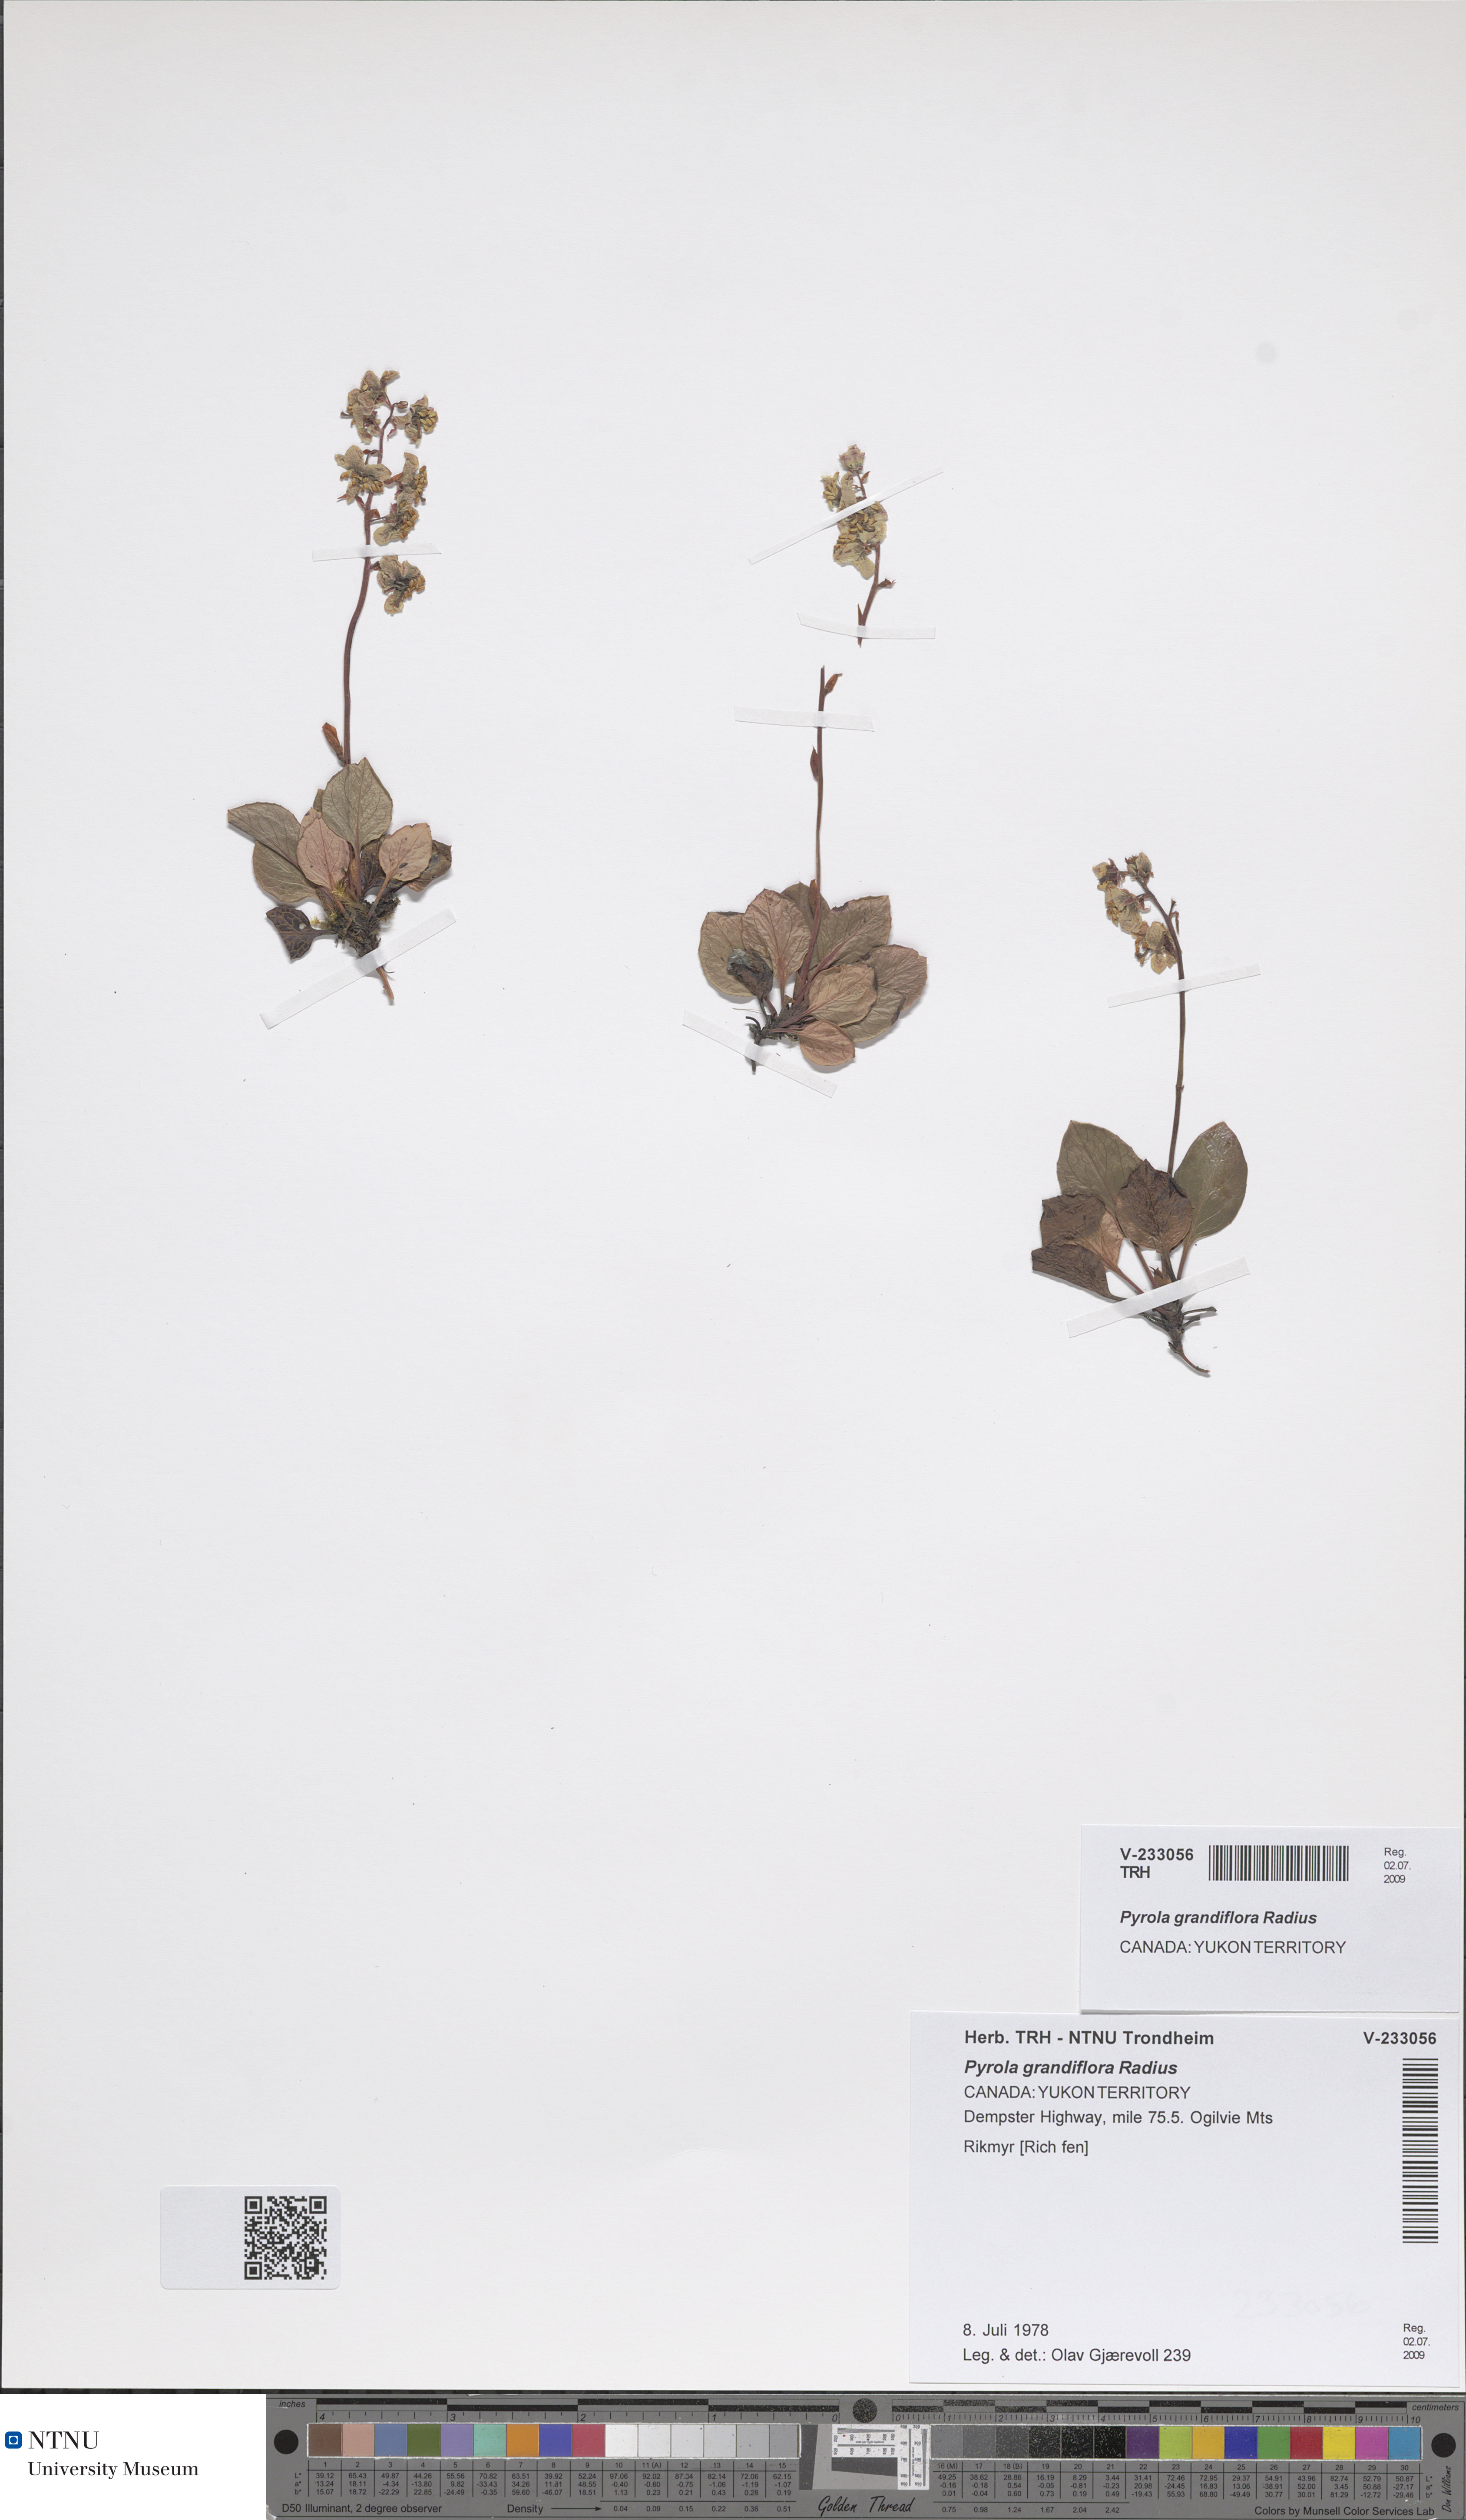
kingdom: Plantae
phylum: Tracheophyta
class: Magnoliopsida
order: Ericales
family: Ericaceae
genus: Pyrola
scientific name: Pyrola grandiflora
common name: Arctic pyrola
